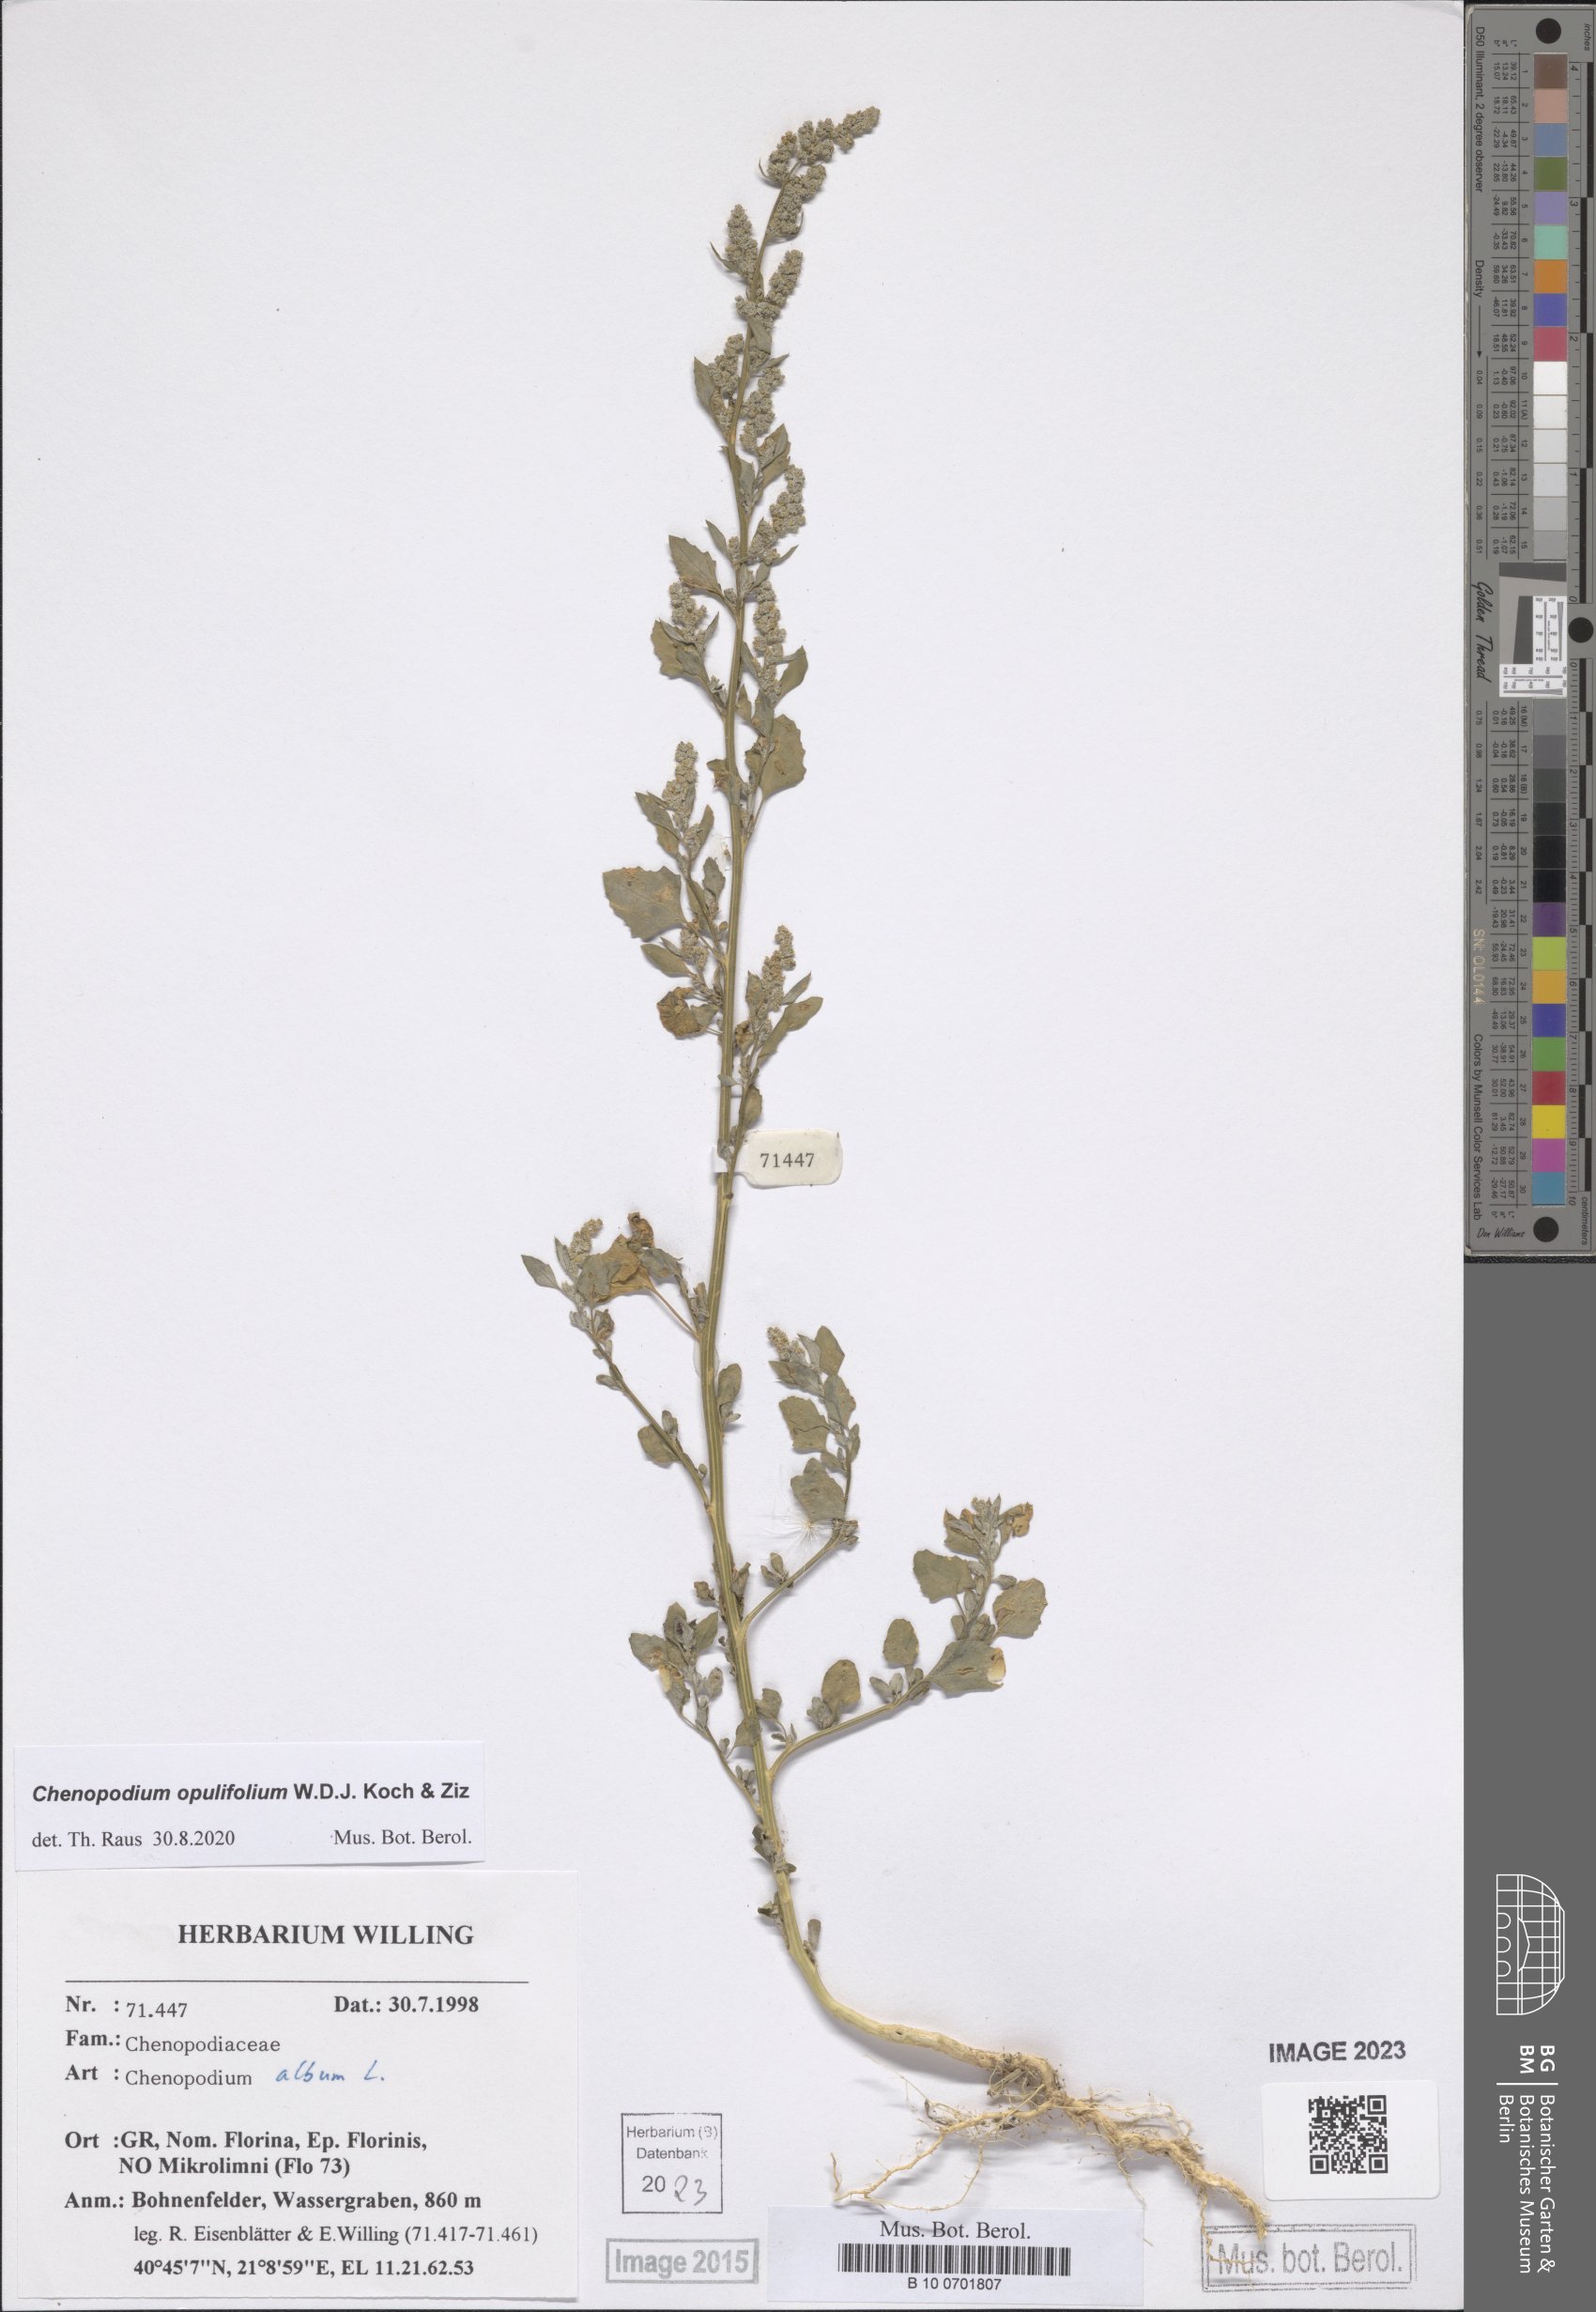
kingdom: Plantae
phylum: Tracheophyta
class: Magnoliopsida
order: Caryophyllales
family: Amaranthaceae
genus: Chenopodium
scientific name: Chenopodium opulifolium
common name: Grey goosefoot
